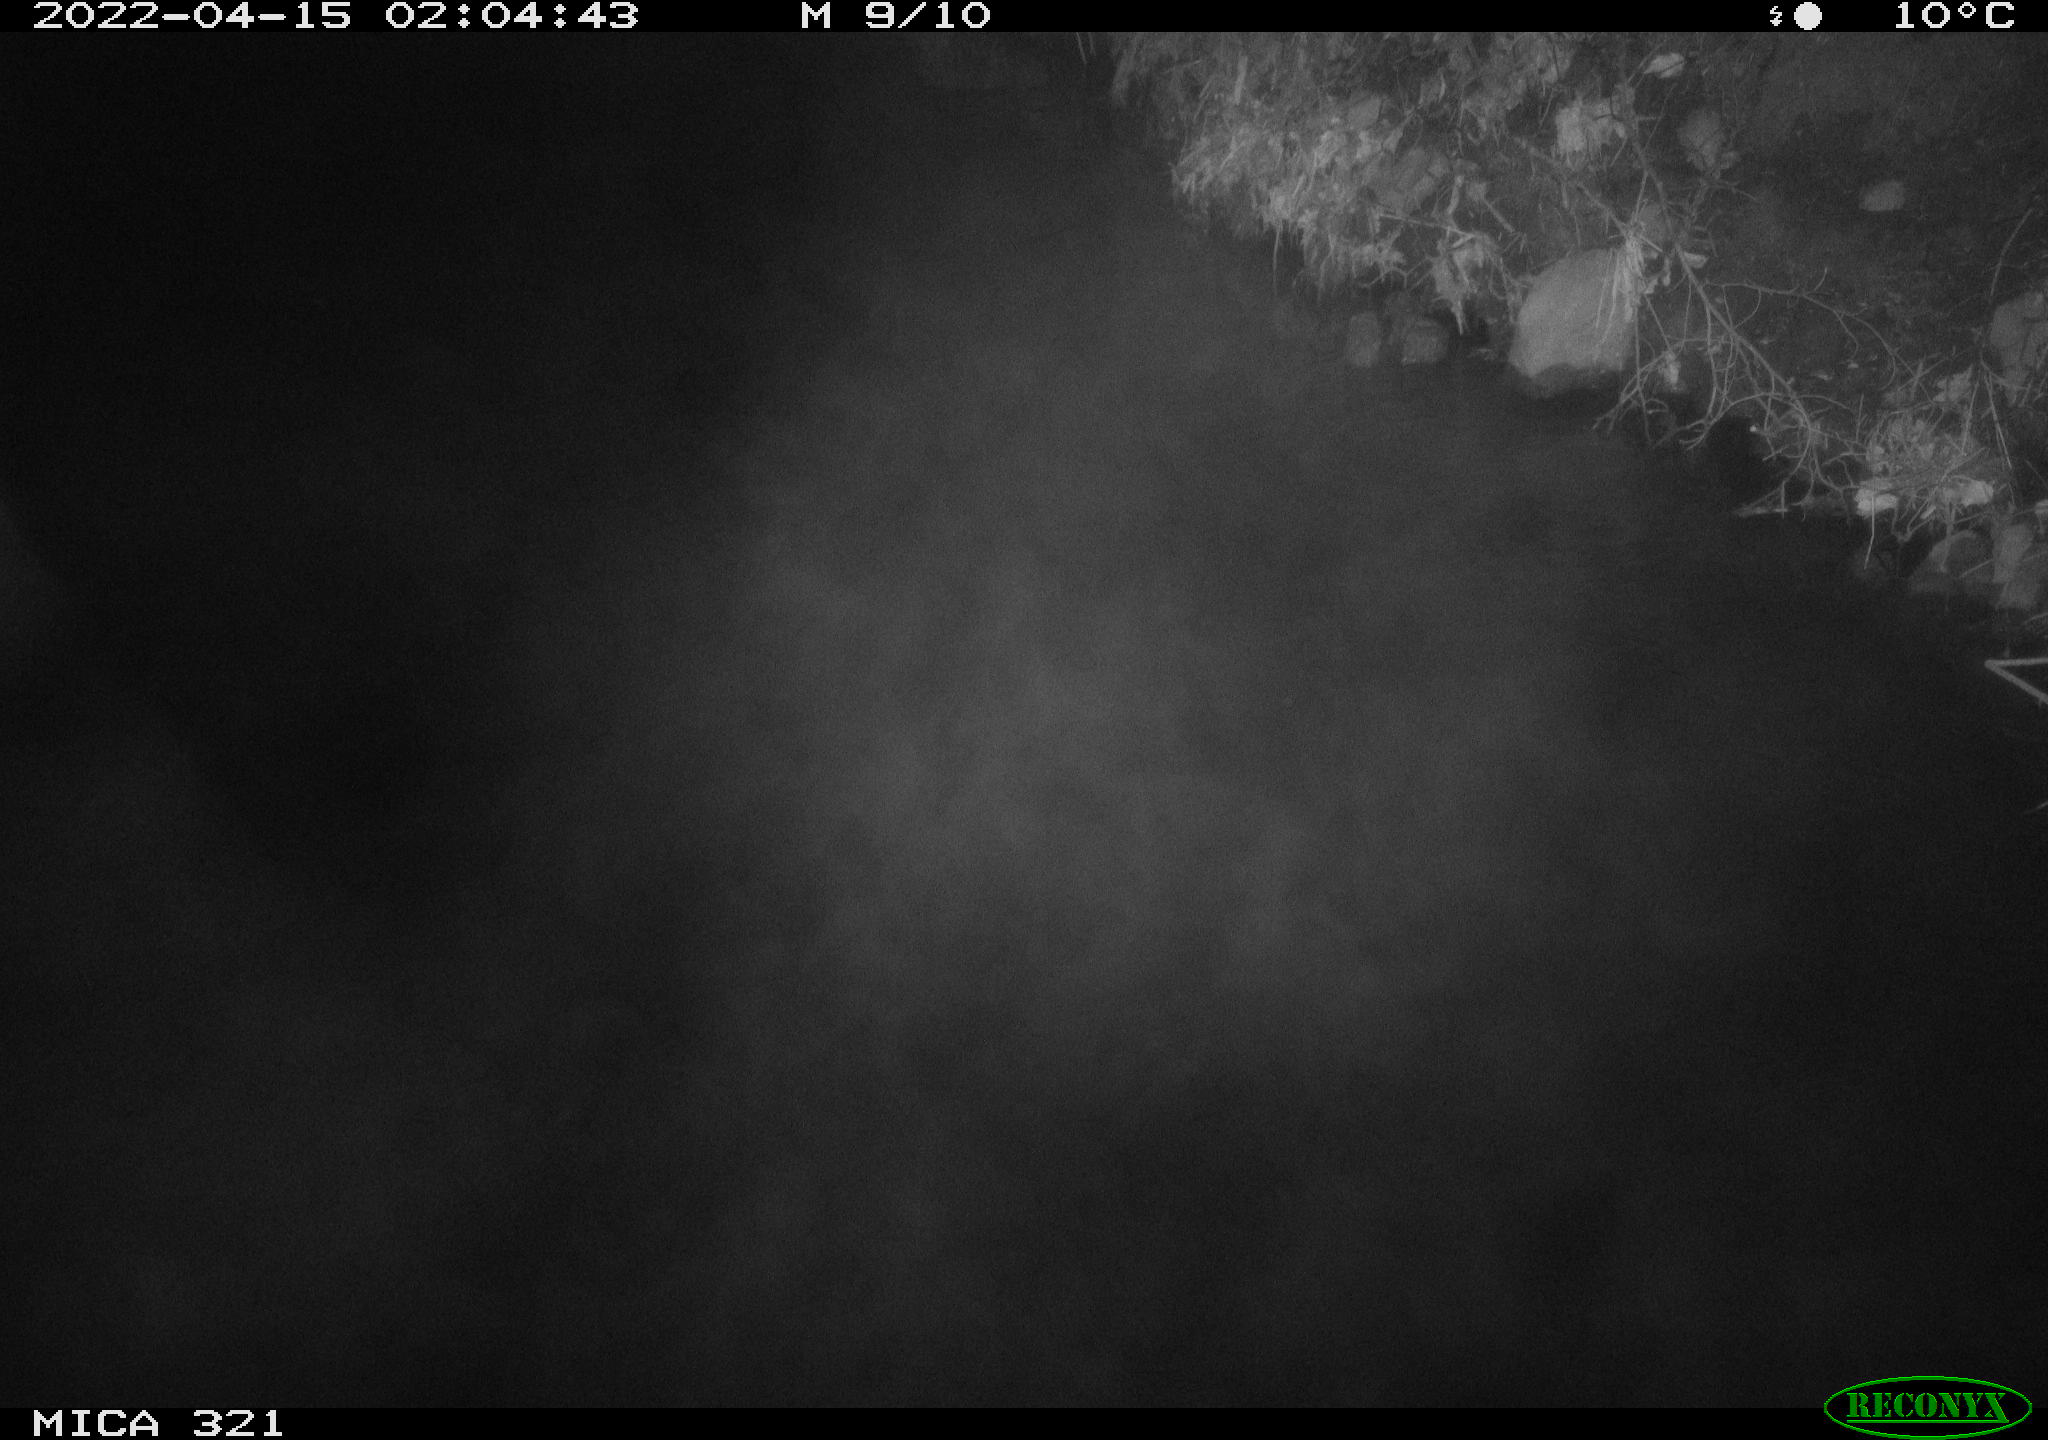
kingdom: Animalia
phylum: Chordata
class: Aves
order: Anseriformes
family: Anatidae
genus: Anas
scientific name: Anas platyrhynchos
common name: Mallard
